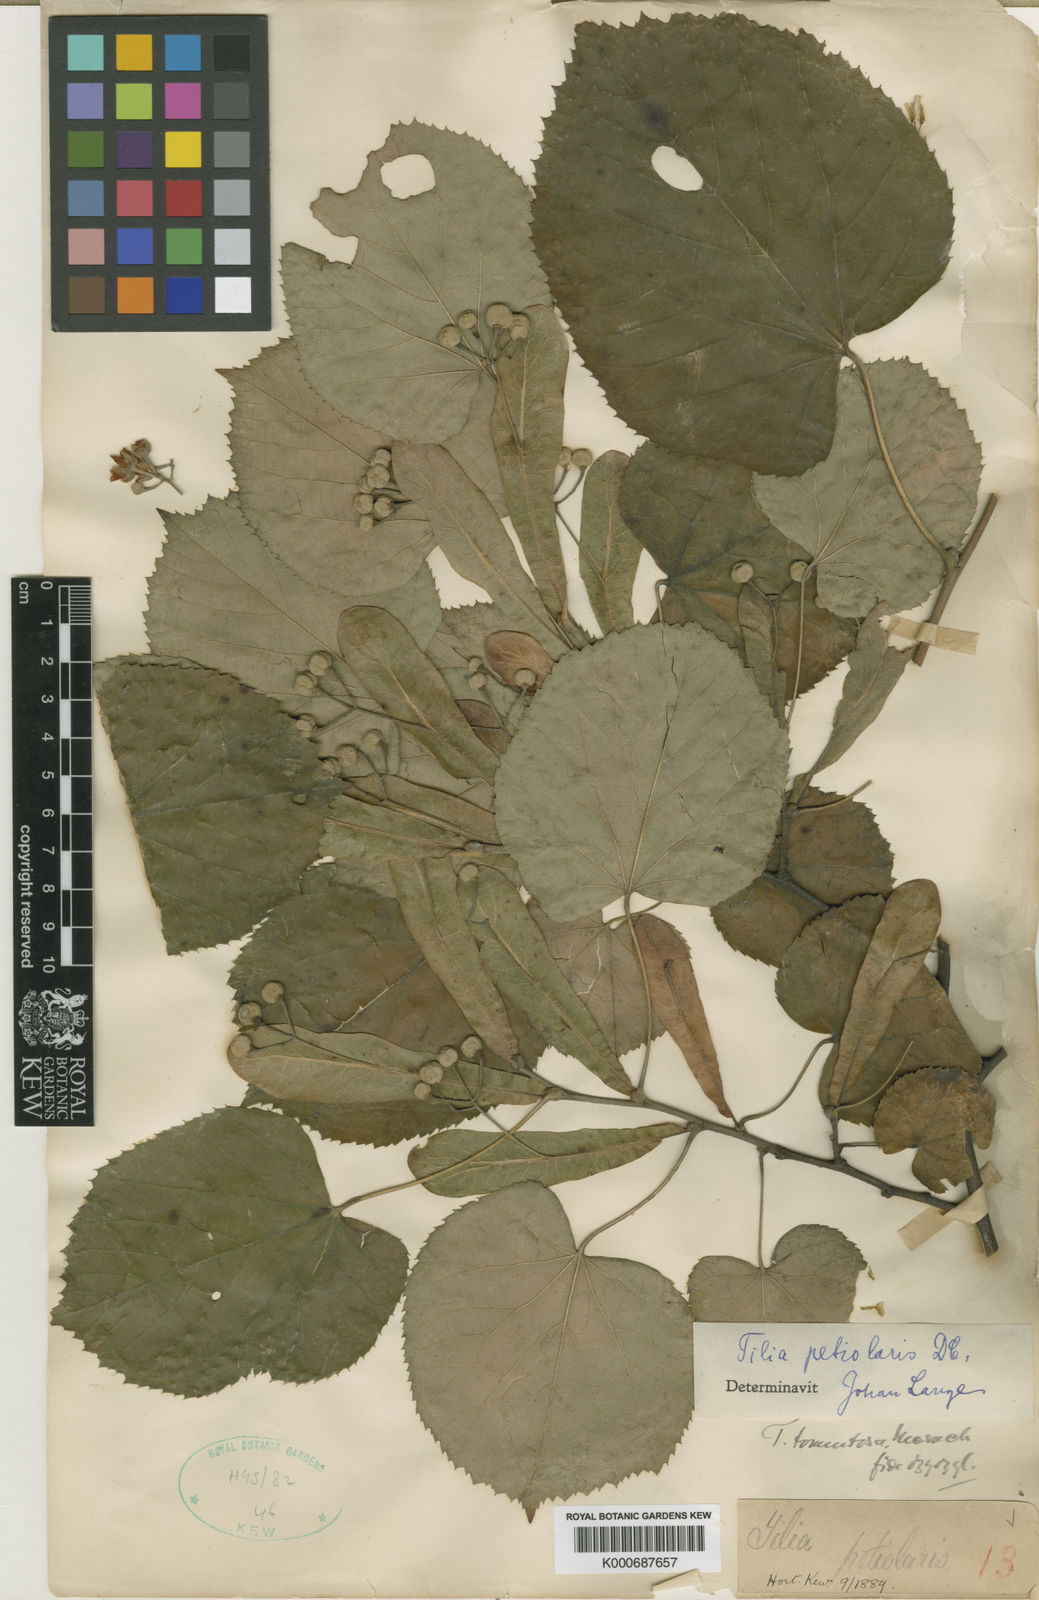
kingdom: Plantae
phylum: Tracheophyta
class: Magnoliopsida
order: Malvales
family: Malvaceae
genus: Tilia
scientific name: Tilia tomentosa
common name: Silver lime
